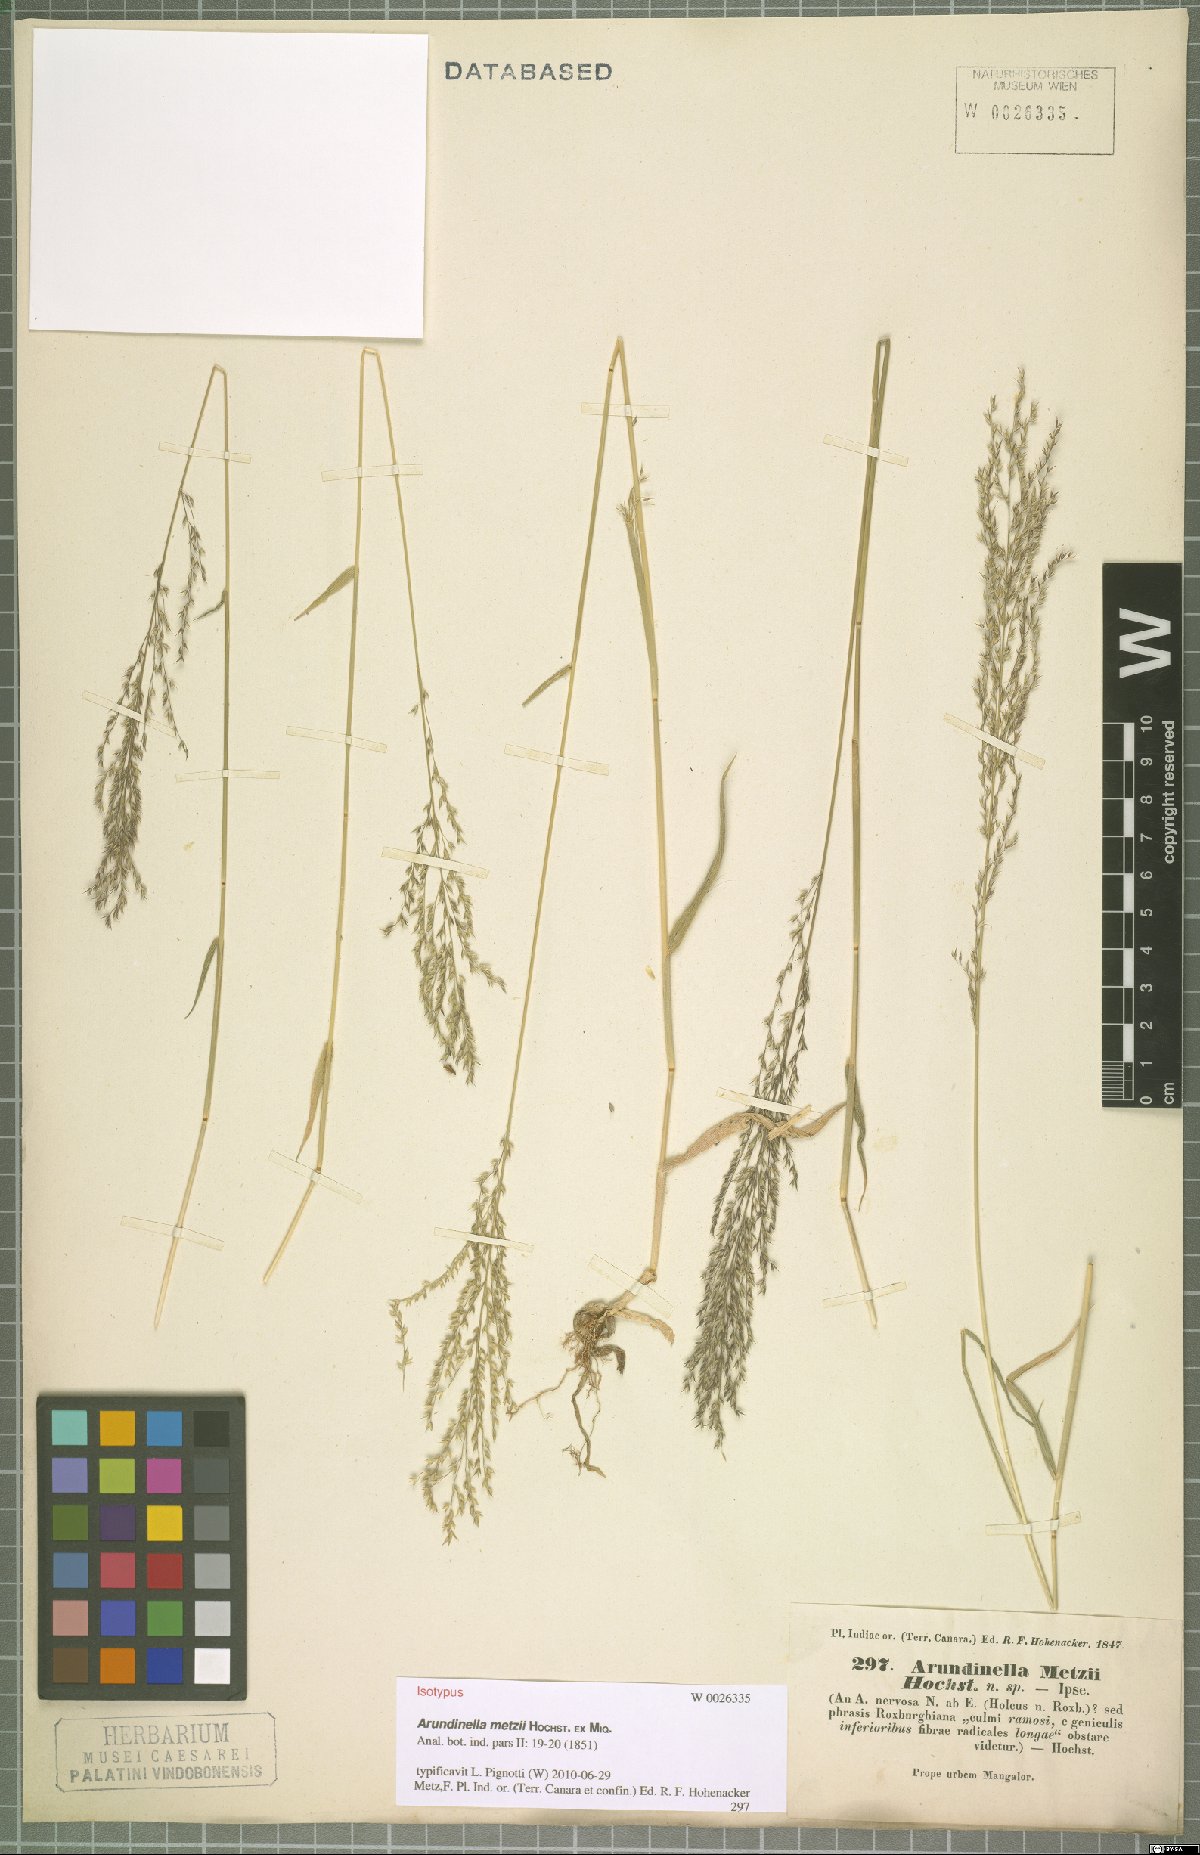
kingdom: Plantae
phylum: Tracheophyta
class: Liliopsida
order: Poales
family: Poaceae
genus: Arundinella
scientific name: Arundinella metzii
